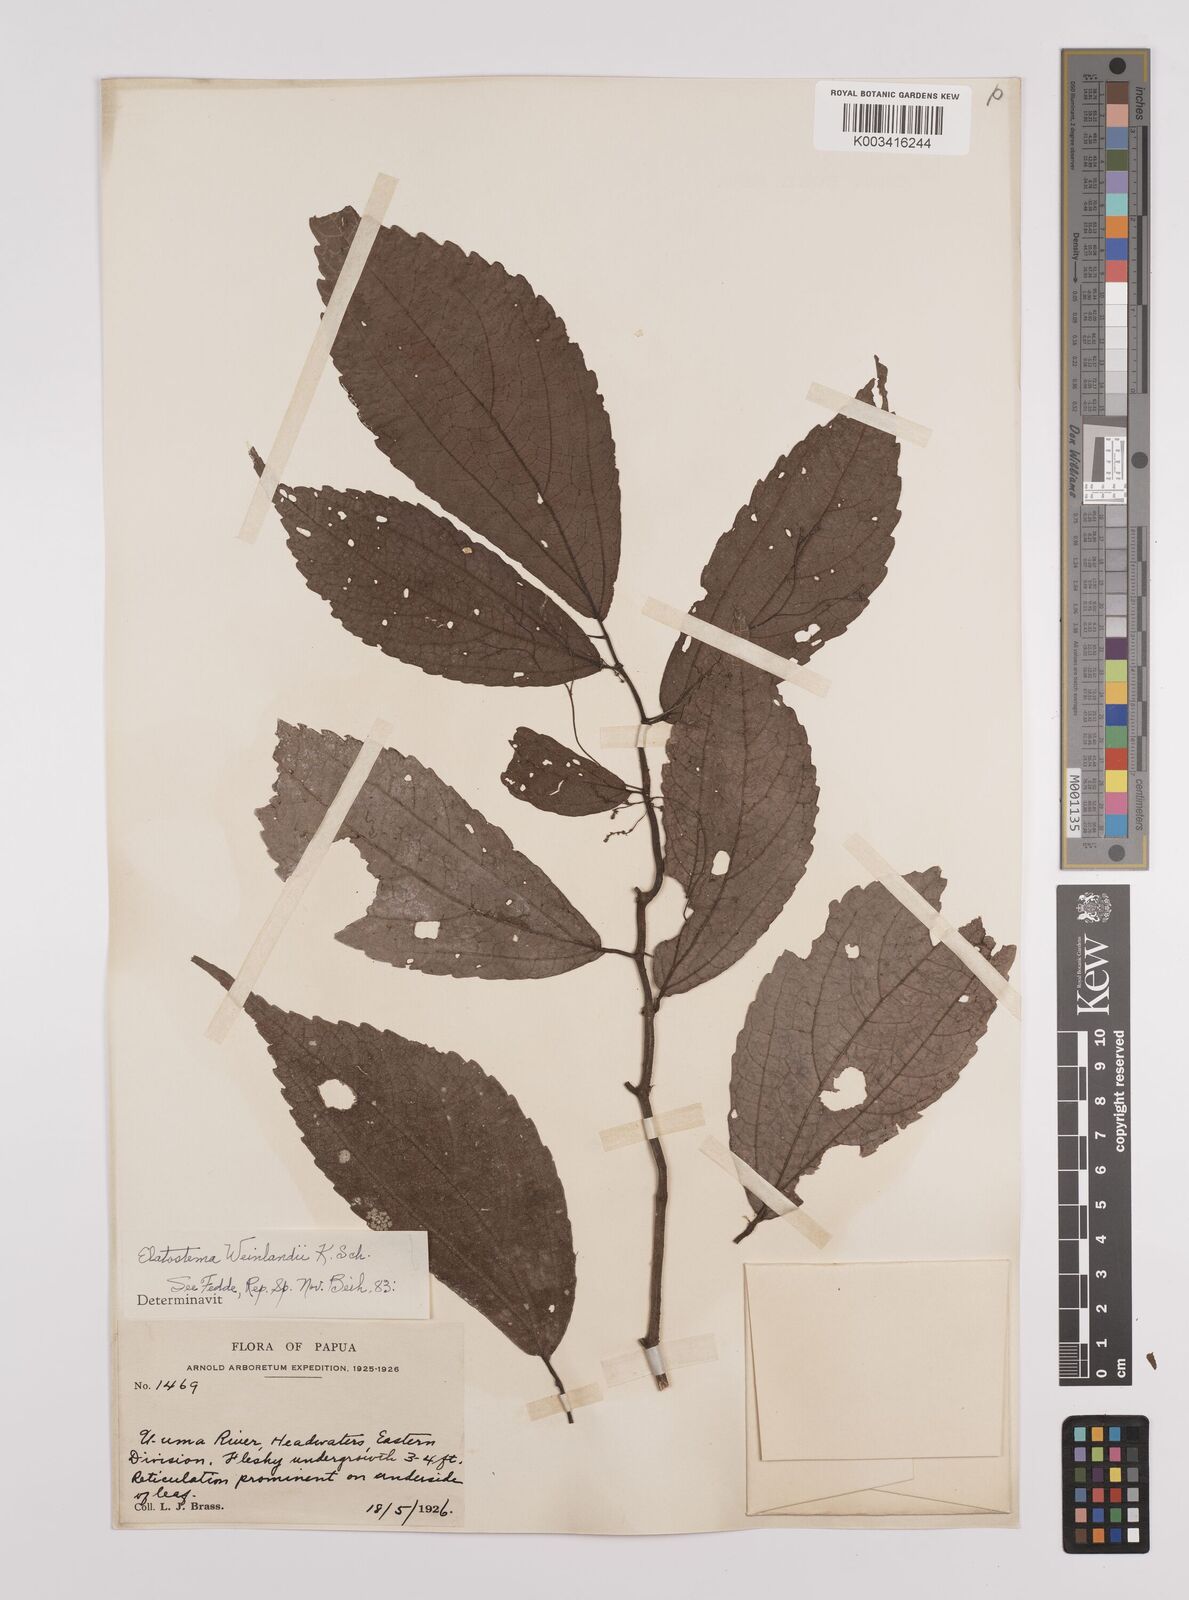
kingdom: Plantae
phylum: Tracheophyta
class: Magnoliopsida
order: Rosales
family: Urticaceae
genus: Elatostema
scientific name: Elatostema weinlandii
